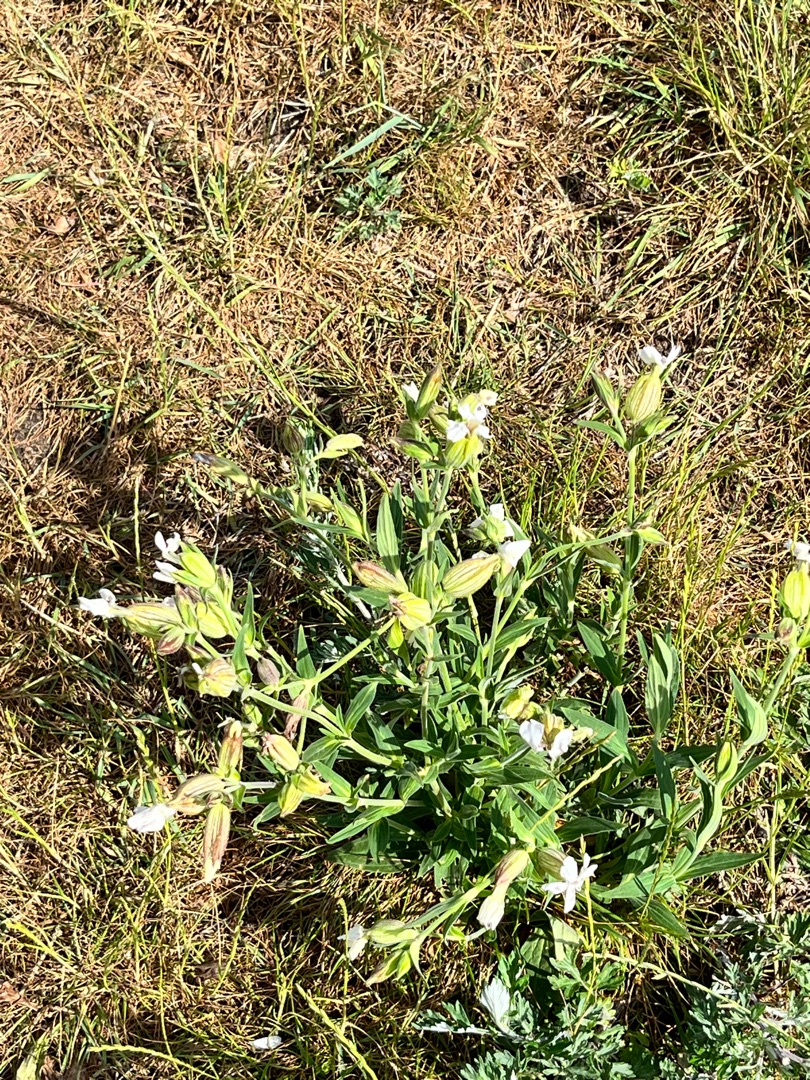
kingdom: Plantae
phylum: Tracheophyta
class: Magnoliopsida
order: Caryophyllales
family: Caryophyllaceae
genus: Silene
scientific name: Silene latifolia
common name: Aftenpragtstjerne
